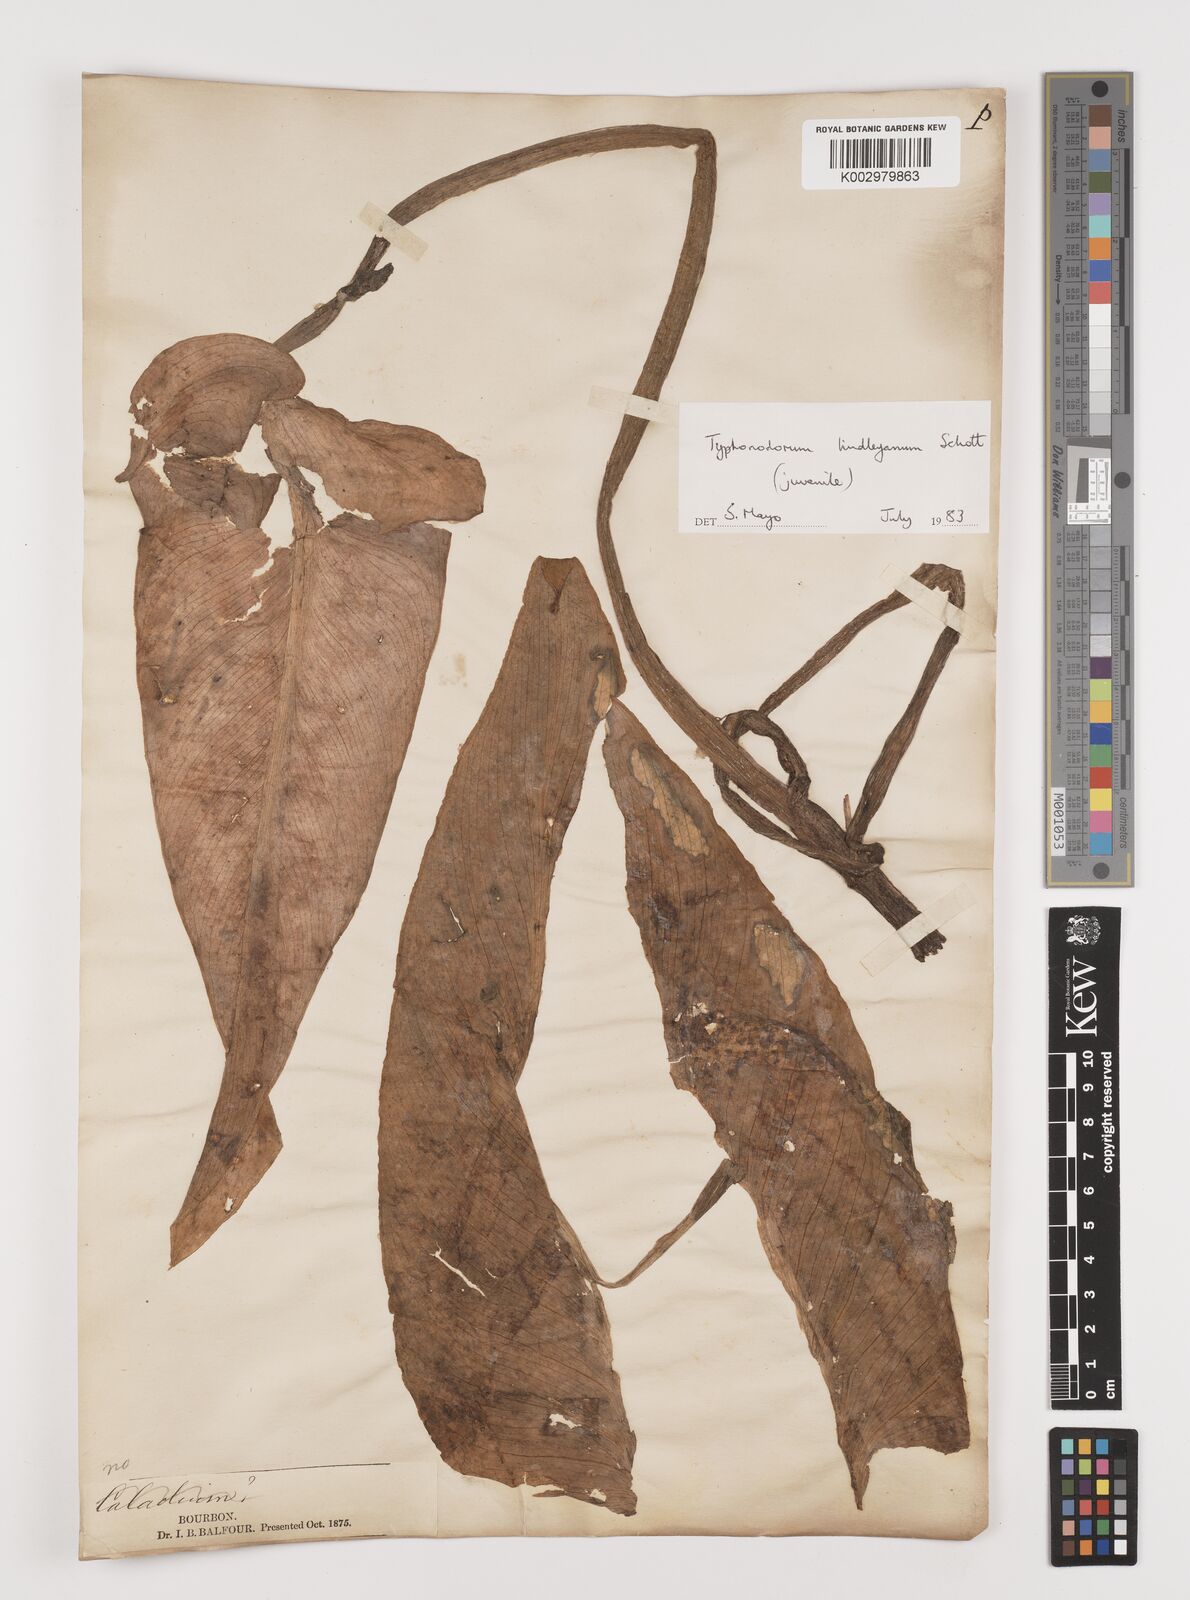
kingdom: Plantae
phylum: Tracheophyta
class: Liliopsida
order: Alismatales
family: Araceae
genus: Typhonodorum
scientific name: Typhonodorum lindleyanum
